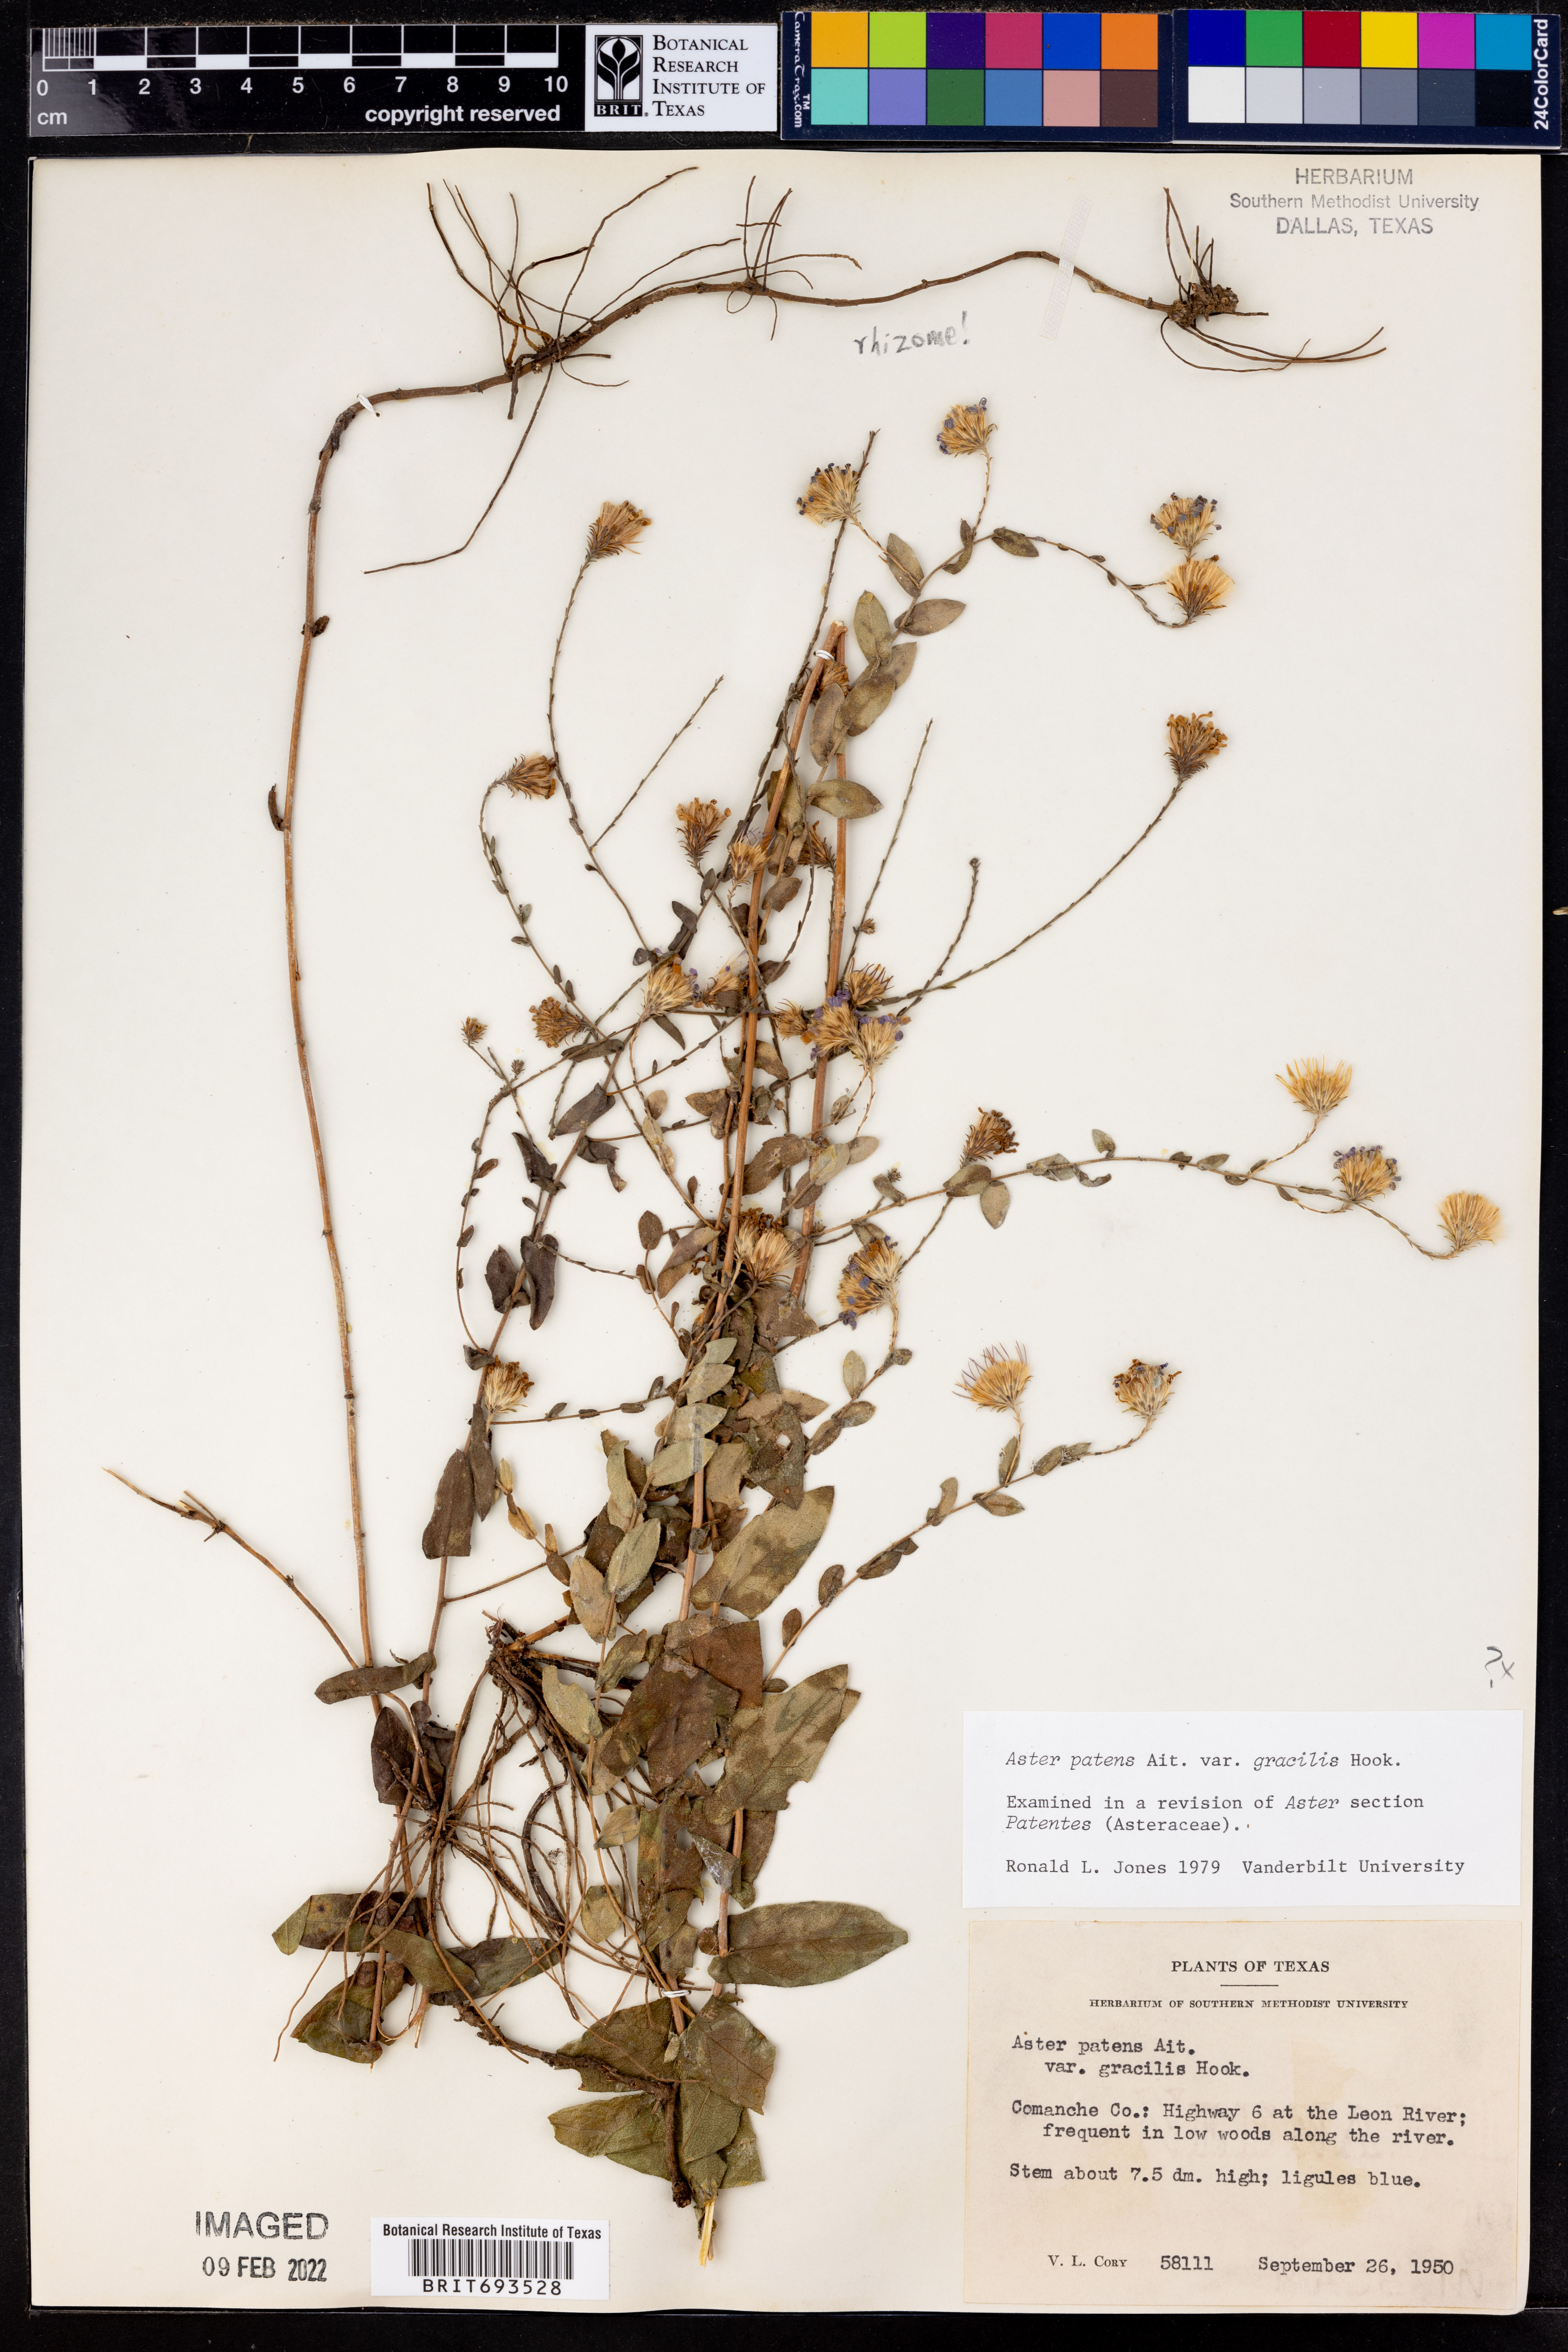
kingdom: Plantae
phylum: Tracheophyta
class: Magnoliopsida
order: Asterales
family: Asteraceae
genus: Symphyotrichum
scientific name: Symphyotrichum patens
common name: Late purple aster
